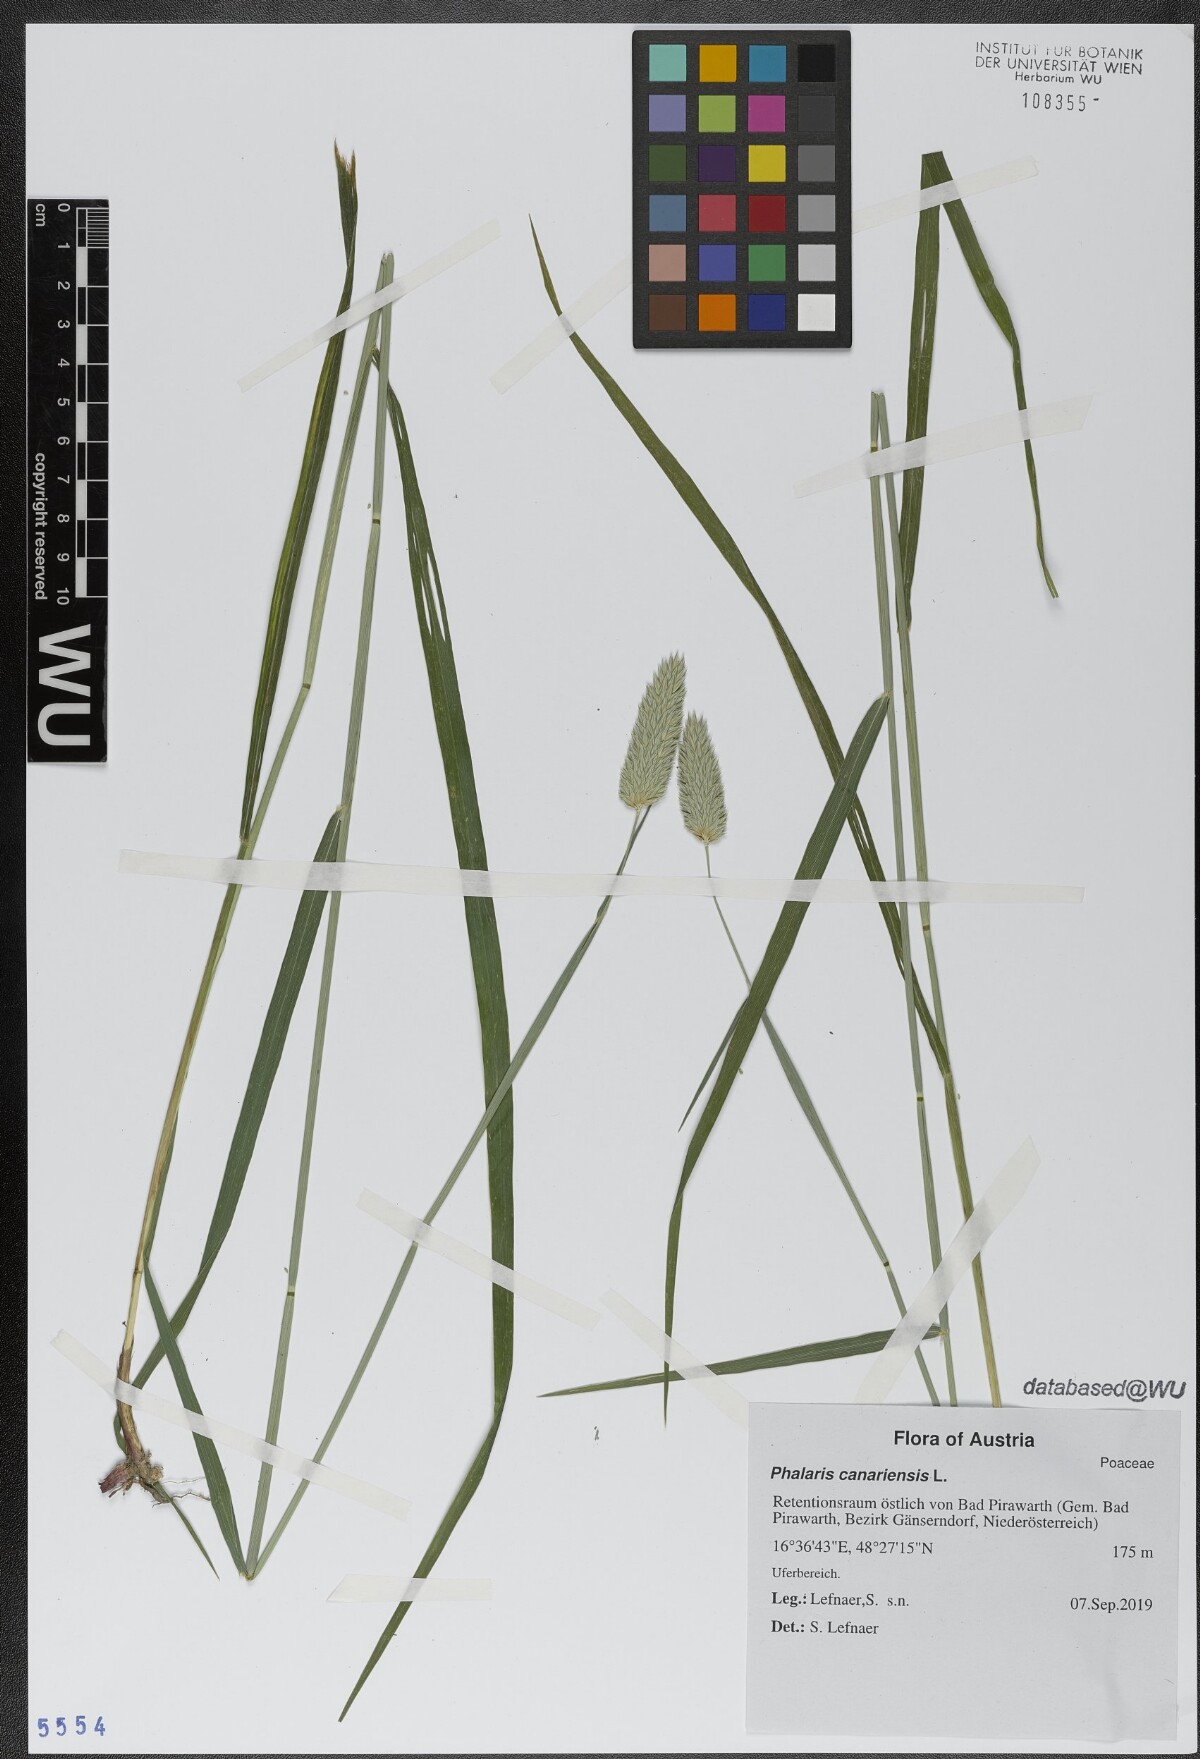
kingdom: Plantae
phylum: Tracheophyta
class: Liliopsida
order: Poales
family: Poaceae
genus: Phalaris
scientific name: Phalaris canariensis
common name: Annual canarygrass
